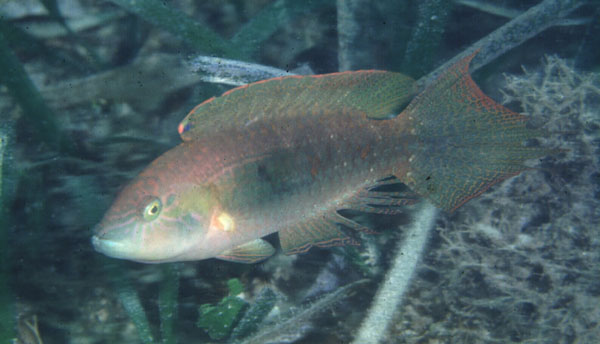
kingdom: Animalia
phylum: Chordata
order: Perciformes
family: Labridae
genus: Oxycheilinus
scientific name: Oxycheilinus bimaculatus
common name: Comettailed wrasse
